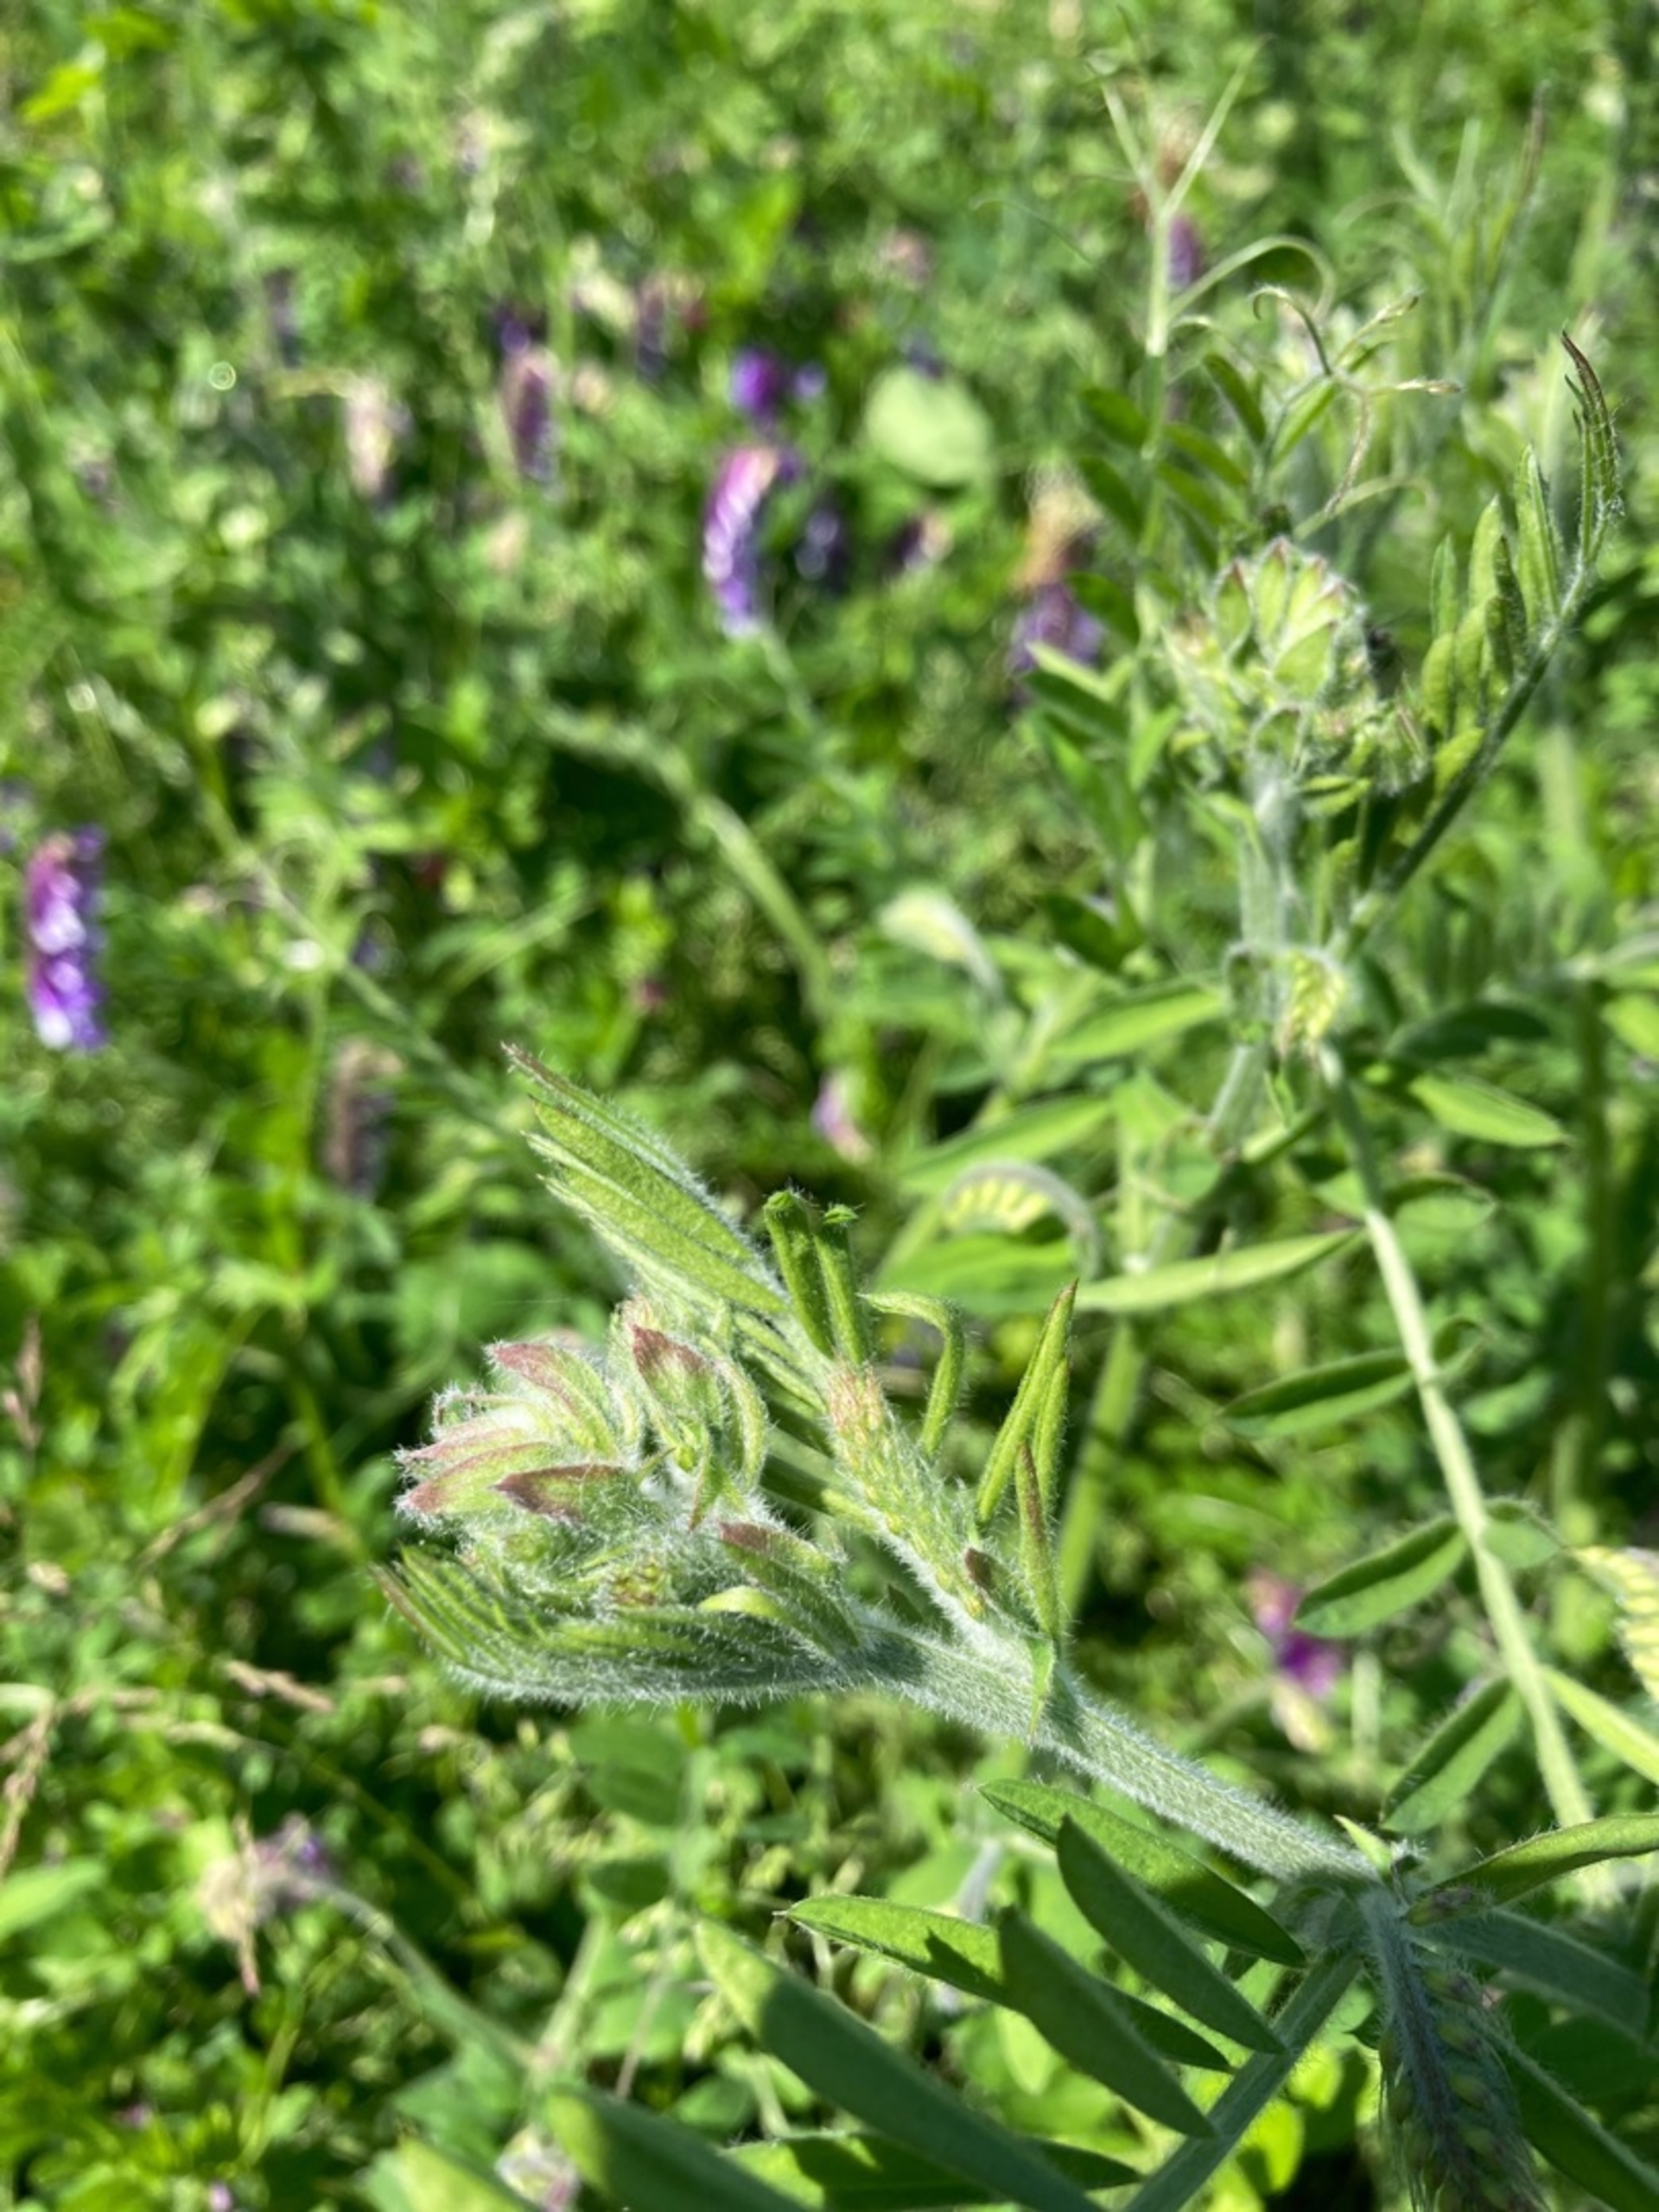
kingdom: Plantae
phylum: Tracheophyta
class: Magnoliopsida
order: Fabales
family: Fabaceae
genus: Vicia
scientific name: Vicia villosa
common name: Sand-vikke (underart)
